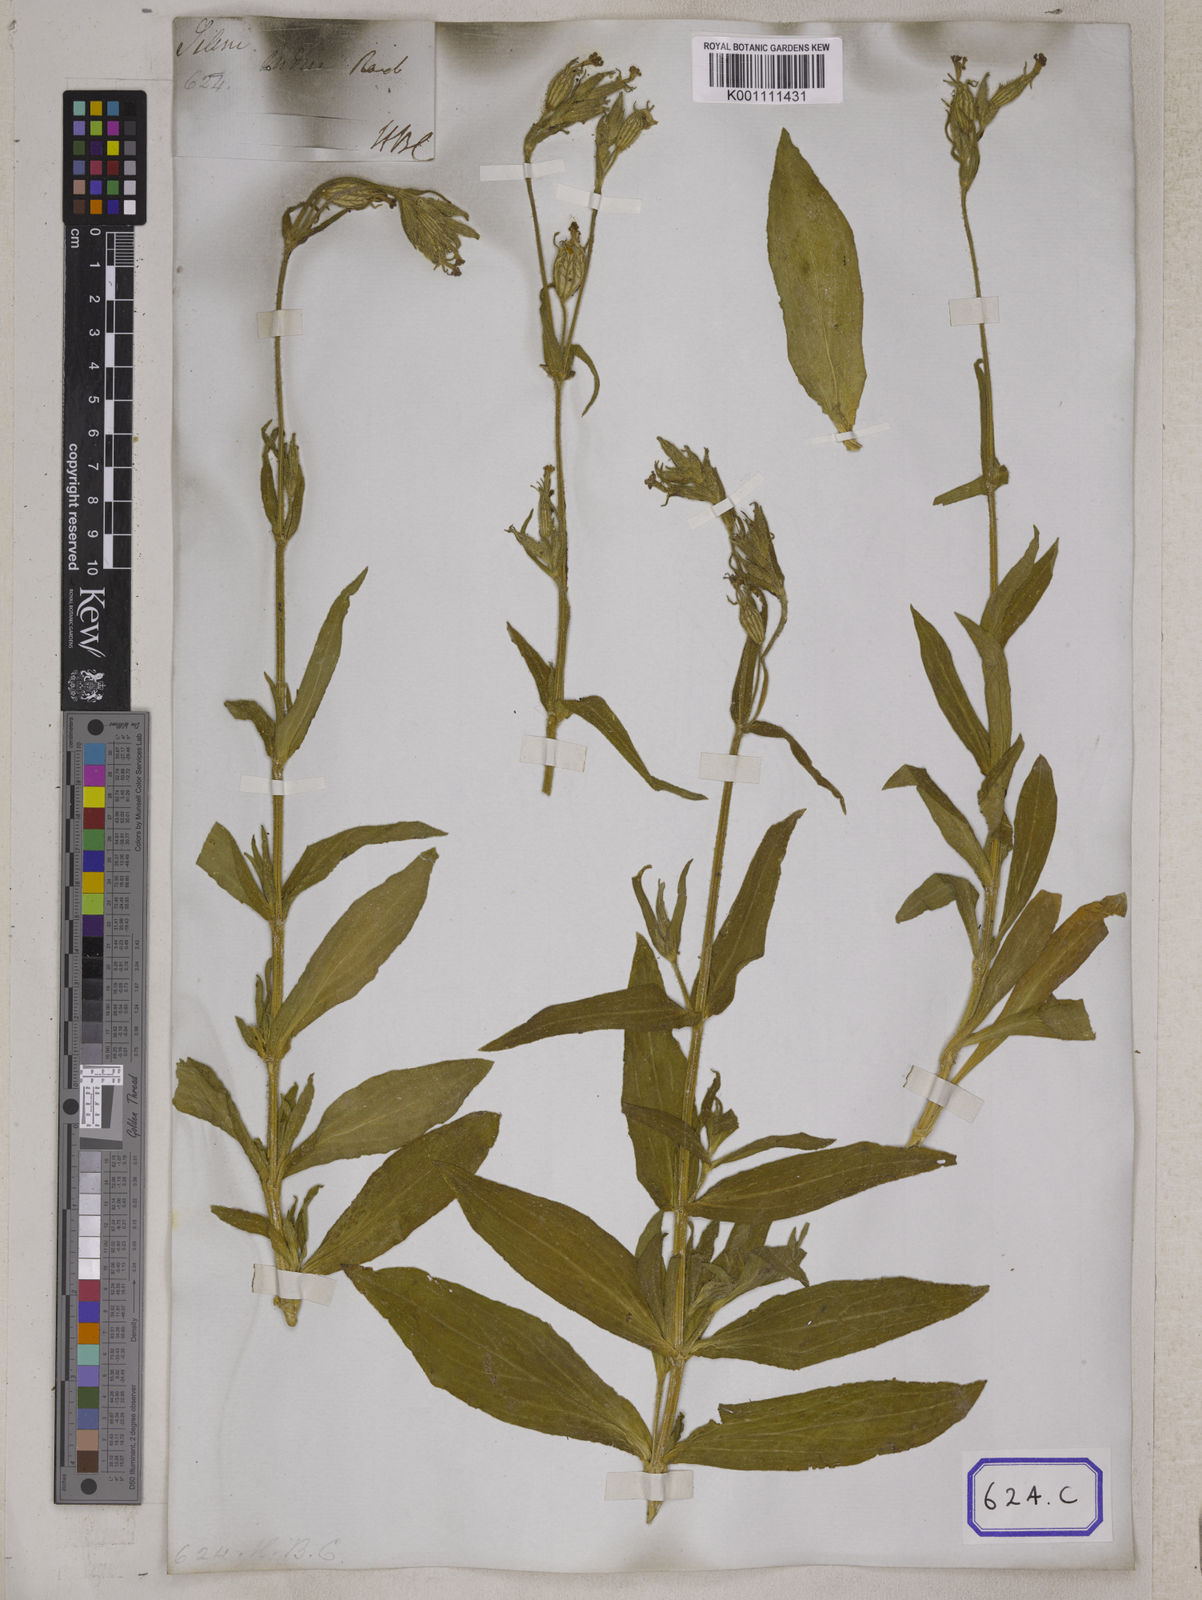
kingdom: Plantae
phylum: Tracheophyta
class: Magnoliopsida
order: Caryophyllales
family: Caryophyllaceae
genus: Silene
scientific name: Silene
